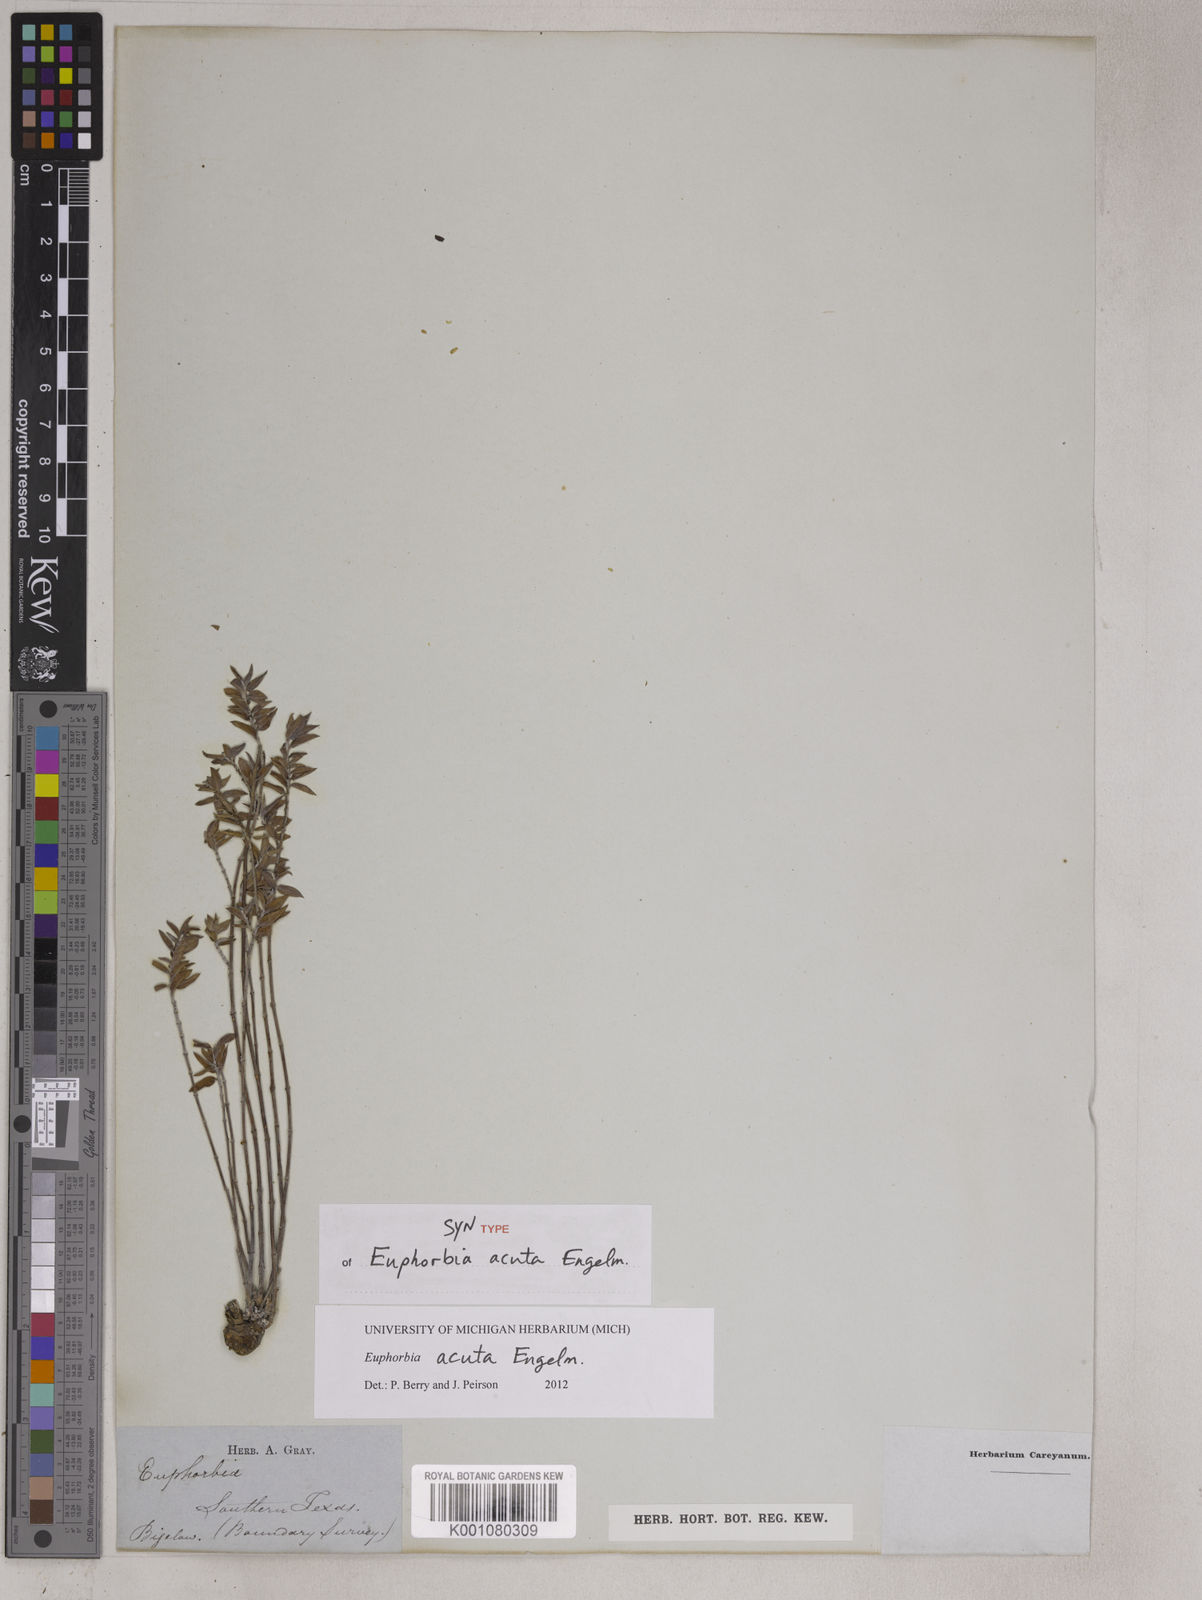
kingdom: Plantae
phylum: Tracheophyta
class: Magnoliopsida
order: Malpighiales
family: Euphorbiaceae
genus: Euphorbia
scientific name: Euphorbia acuta
